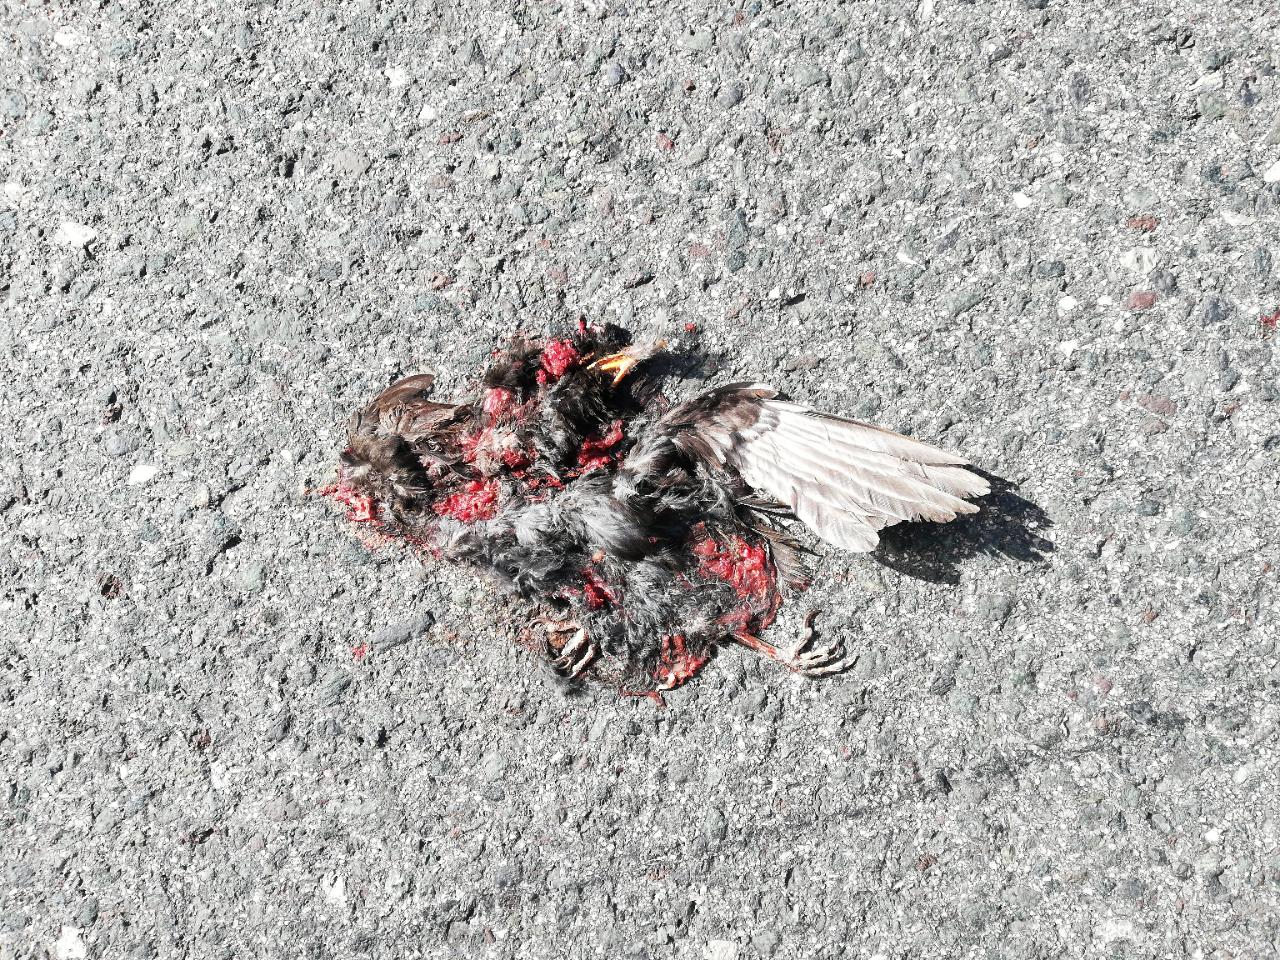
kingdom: Animalia
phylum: Chordata
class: Aves
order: Passeriformes
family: Turdidae
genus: Turdus
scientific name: Turdus merula
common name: Common blackbird
